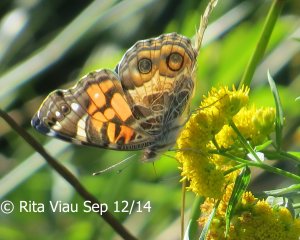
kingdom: Animalia
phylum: Arthropoda
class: Insecta
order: Lepidoptera
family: Nymphalidae
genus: Vanessa
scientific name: Vanessa virginiensis
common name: American Lady
